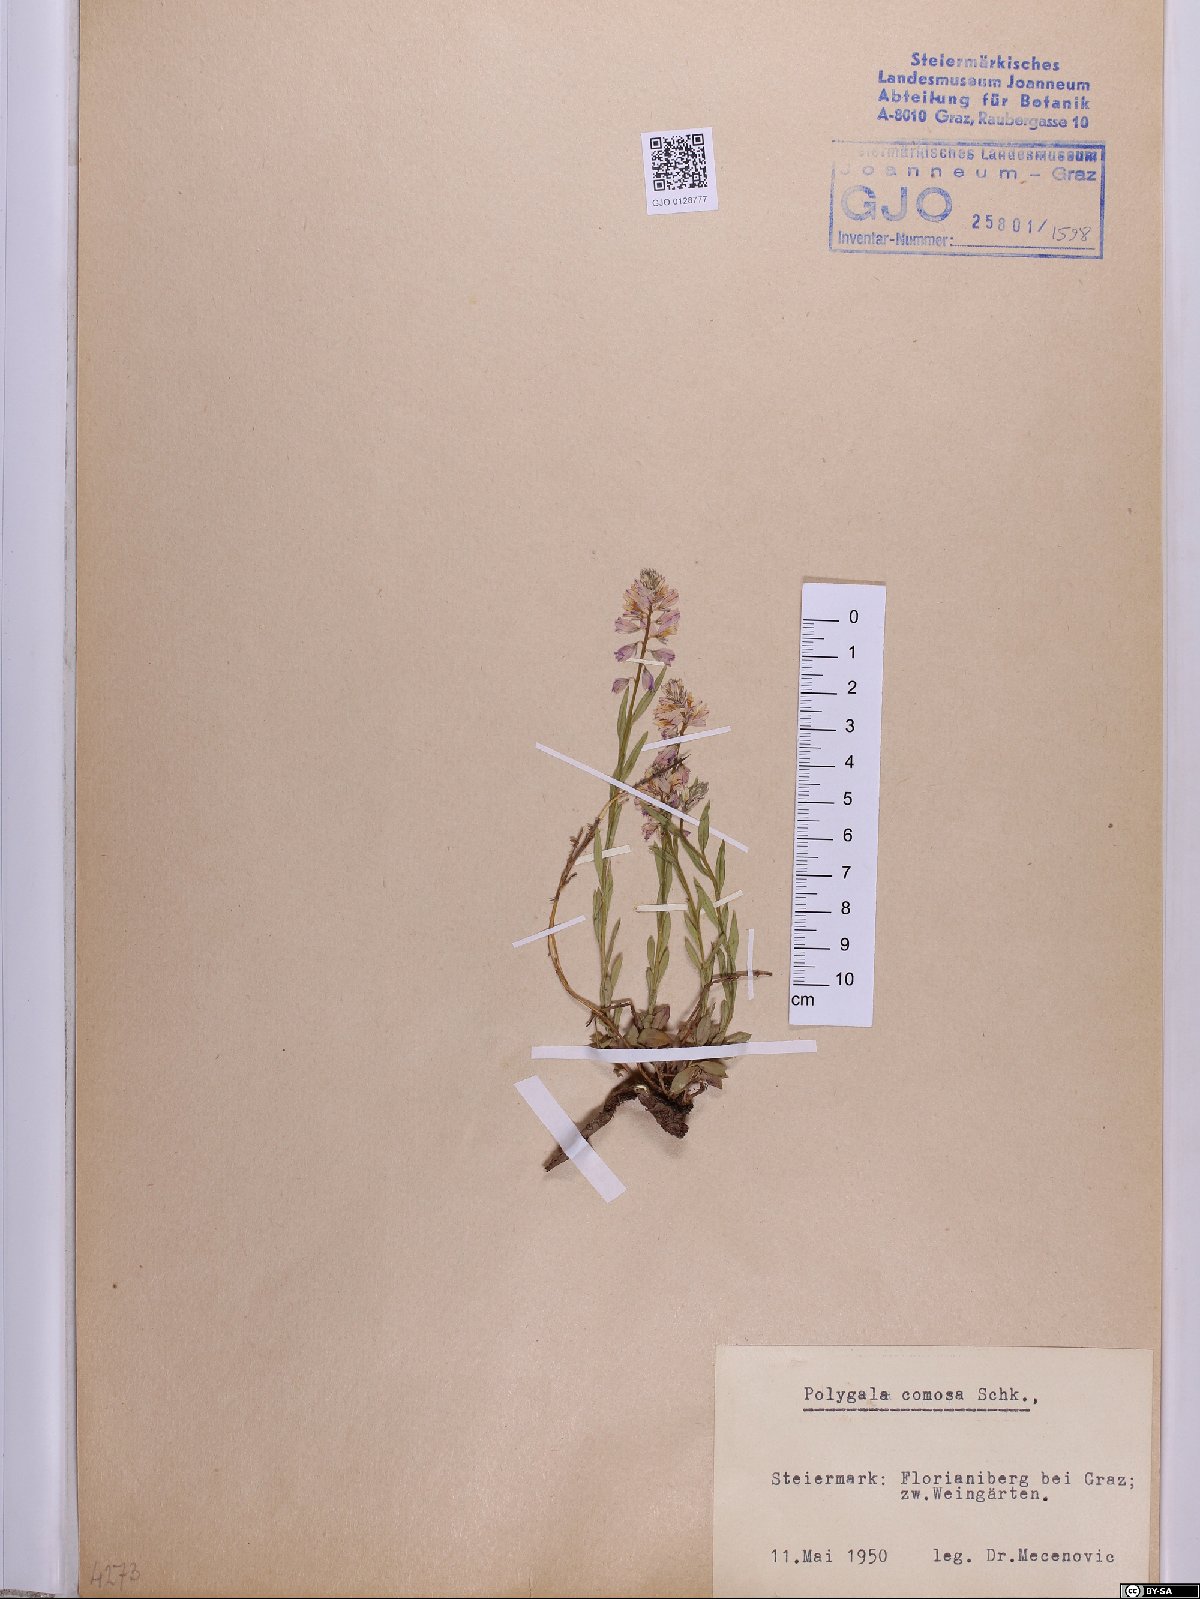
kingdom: Plantae
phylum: Tracheophyta
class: Magnoliopsida
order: Fabales
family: Polygalaceae
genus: Polygala
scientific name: Polygala comosa
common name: Tufted milkwort
